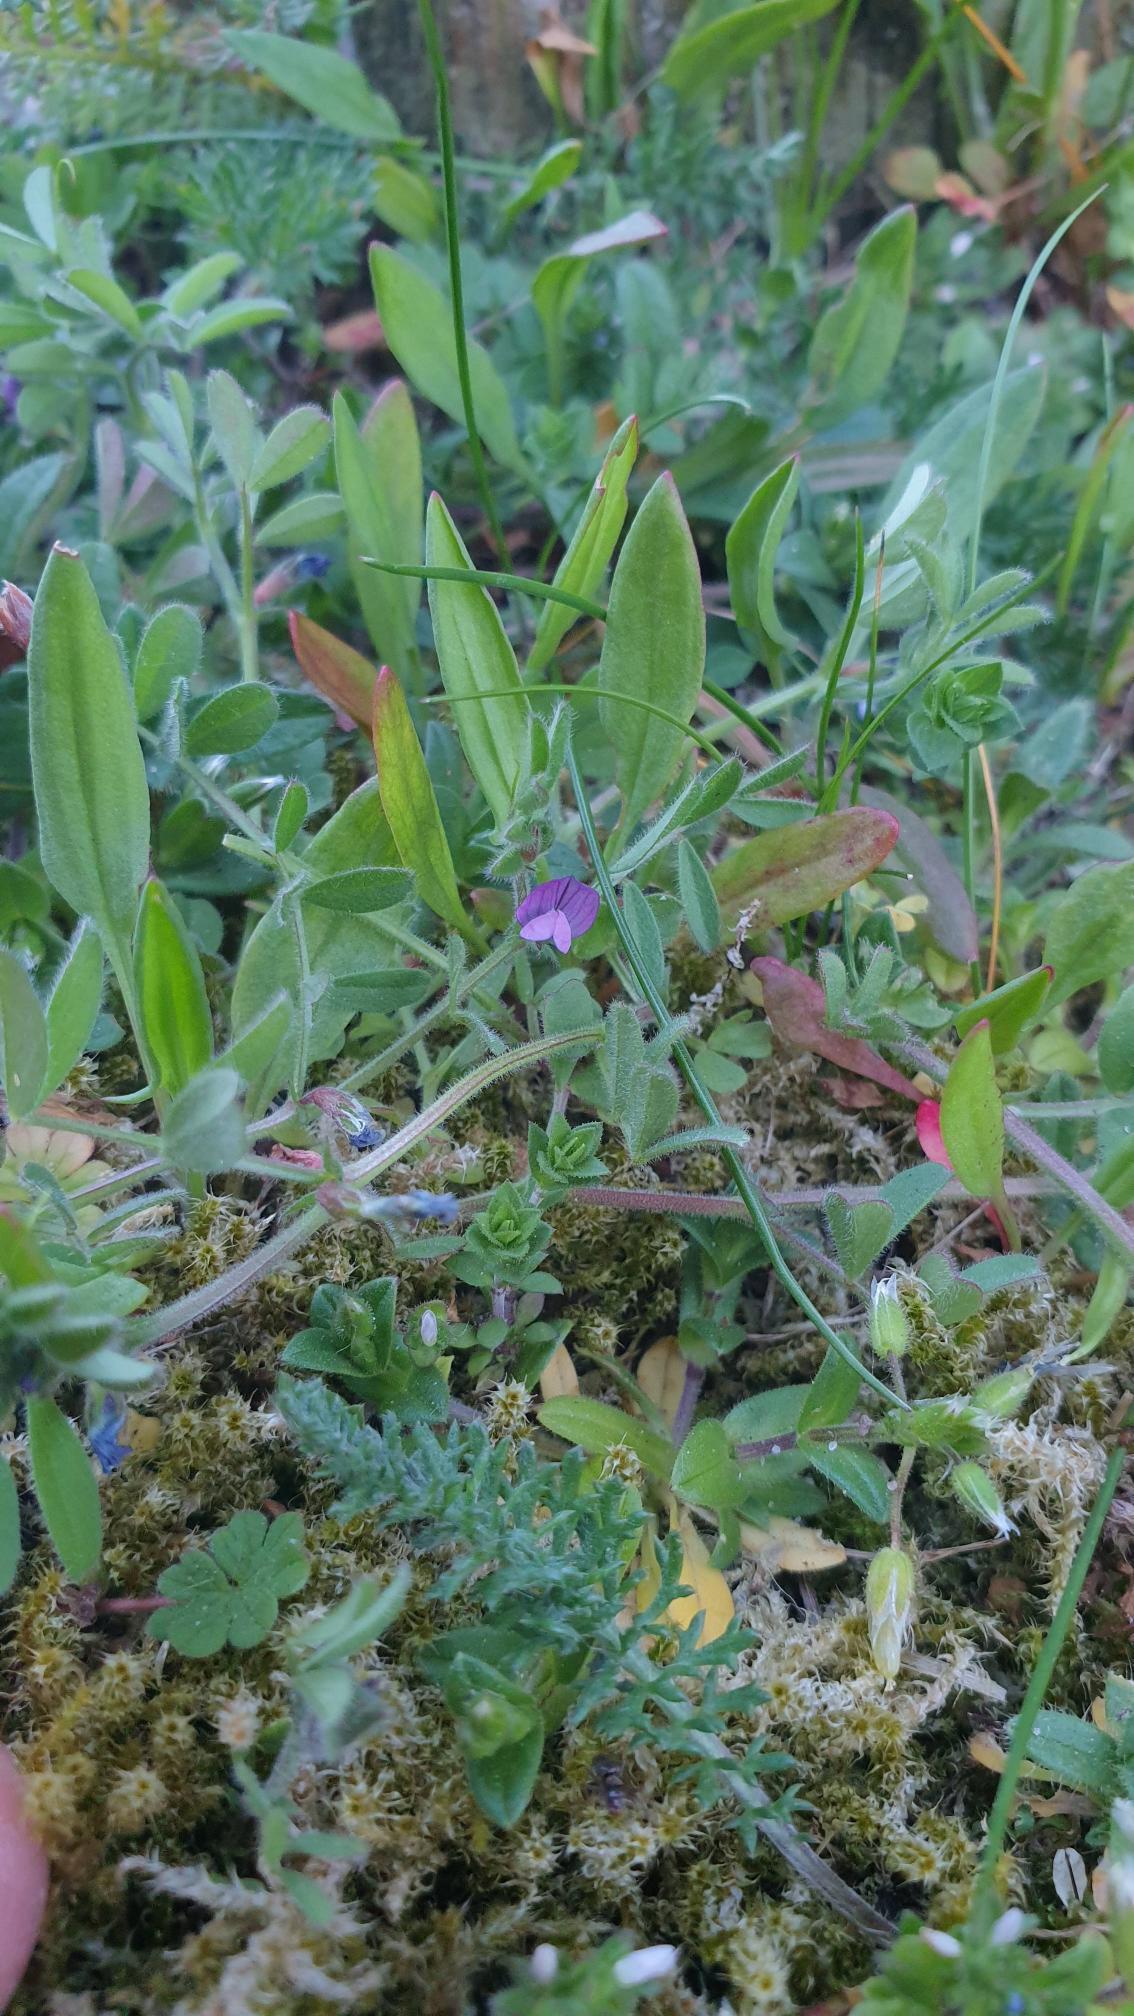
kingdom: Plantae
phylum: Tracheophyta
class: Magnoliopsida
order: Fabales
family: Fabaceae
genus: Vicia
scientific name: Vicia lathyroides
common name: Vår-vikke
